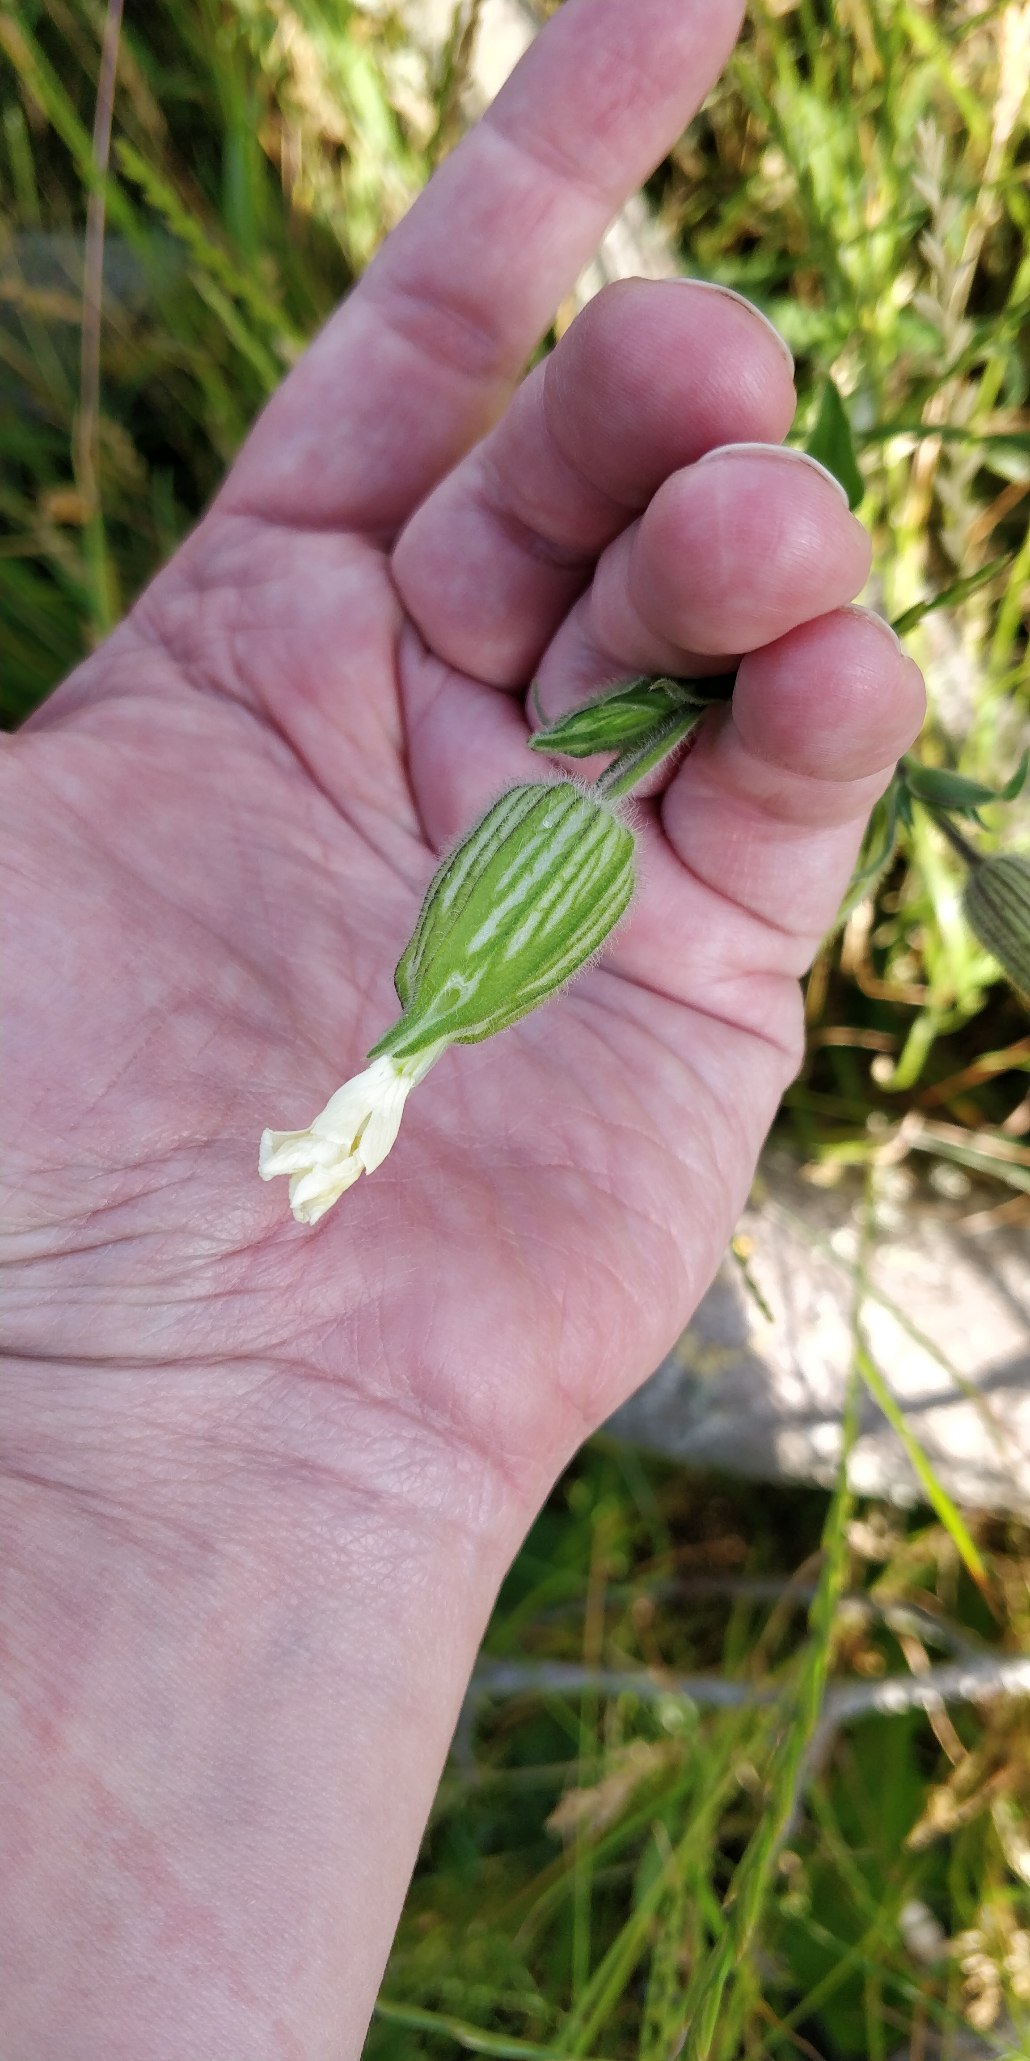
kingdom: Plantae
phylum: Tracheophyta
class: Magnoliopsida
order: Caryophyllales
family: Caryophyllaceae
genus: Silene
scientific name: Silene latifolia
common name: Aftenpragtstjerne
